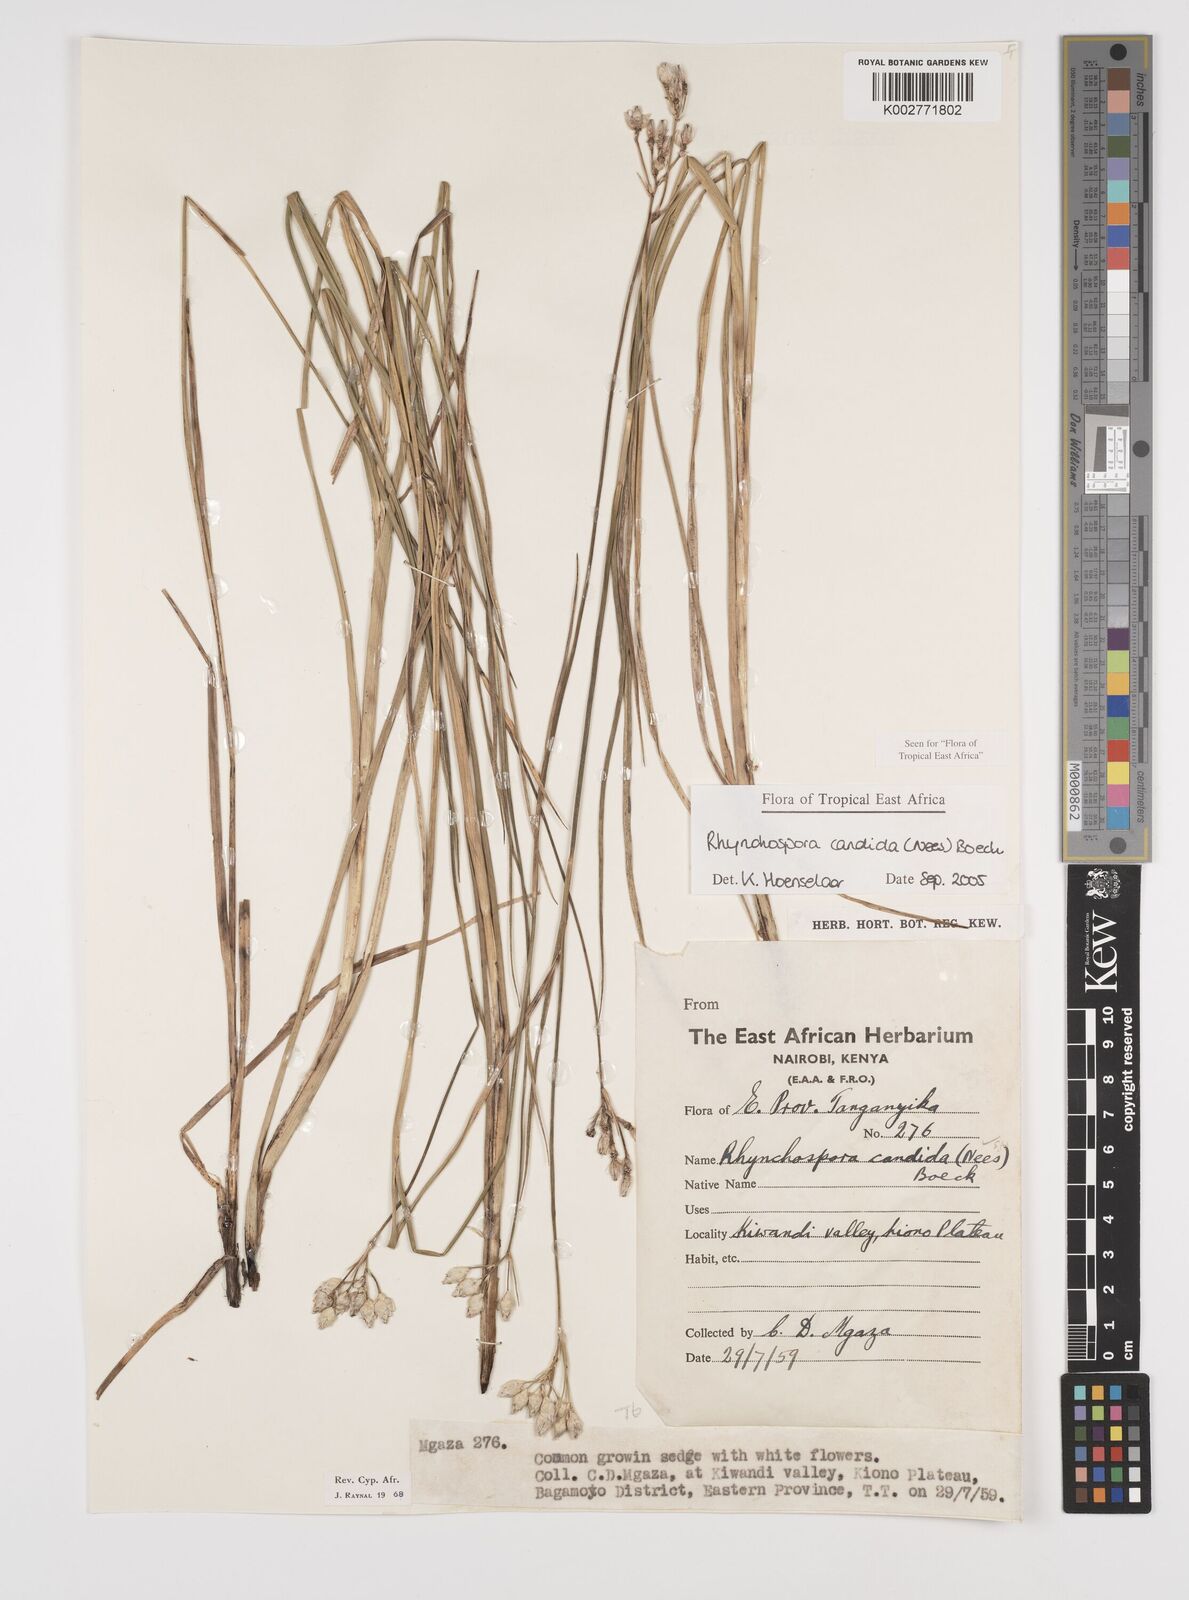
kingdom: Plantae
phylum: Tracheophyta
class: Liliopsida
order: Poales
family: Cyperaceae
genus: Rhynchospora
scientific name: Rhynchospora candida
